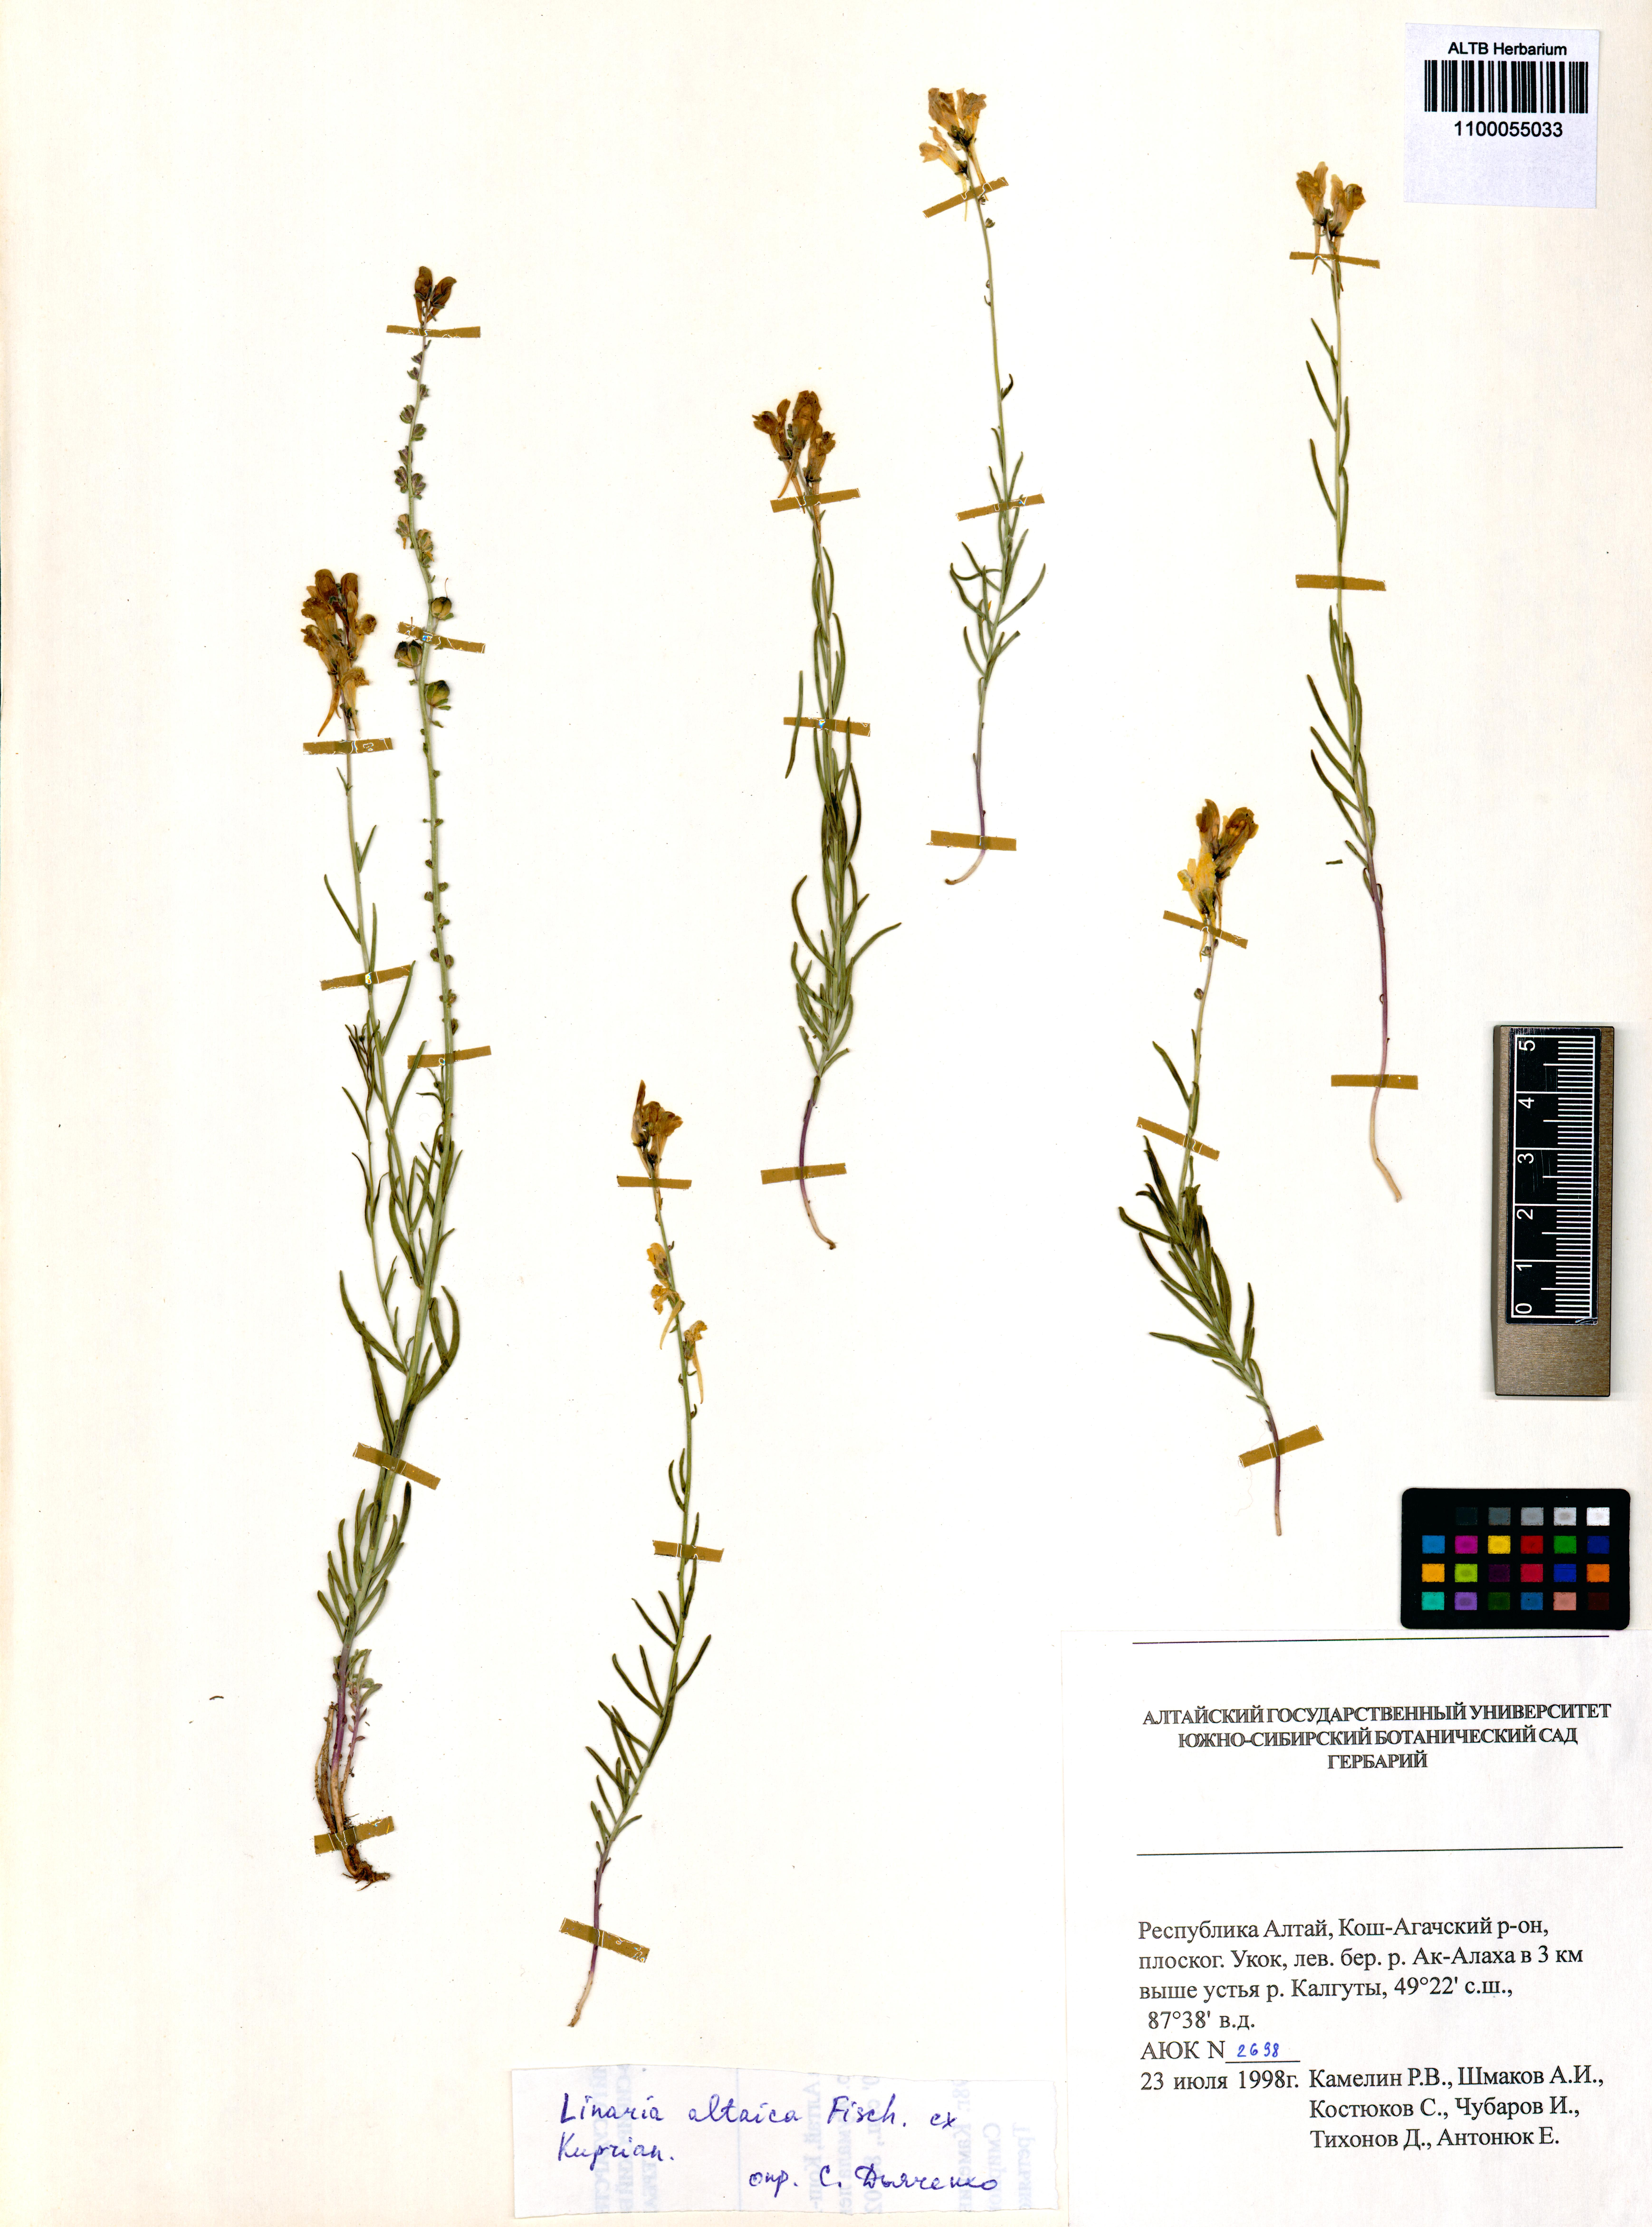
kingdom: Plantae
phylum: Tracheophyta
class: Magnoliopsida
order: Lamiales
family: Plantaginaceae
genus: Linaria
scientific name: Linaria altaica
